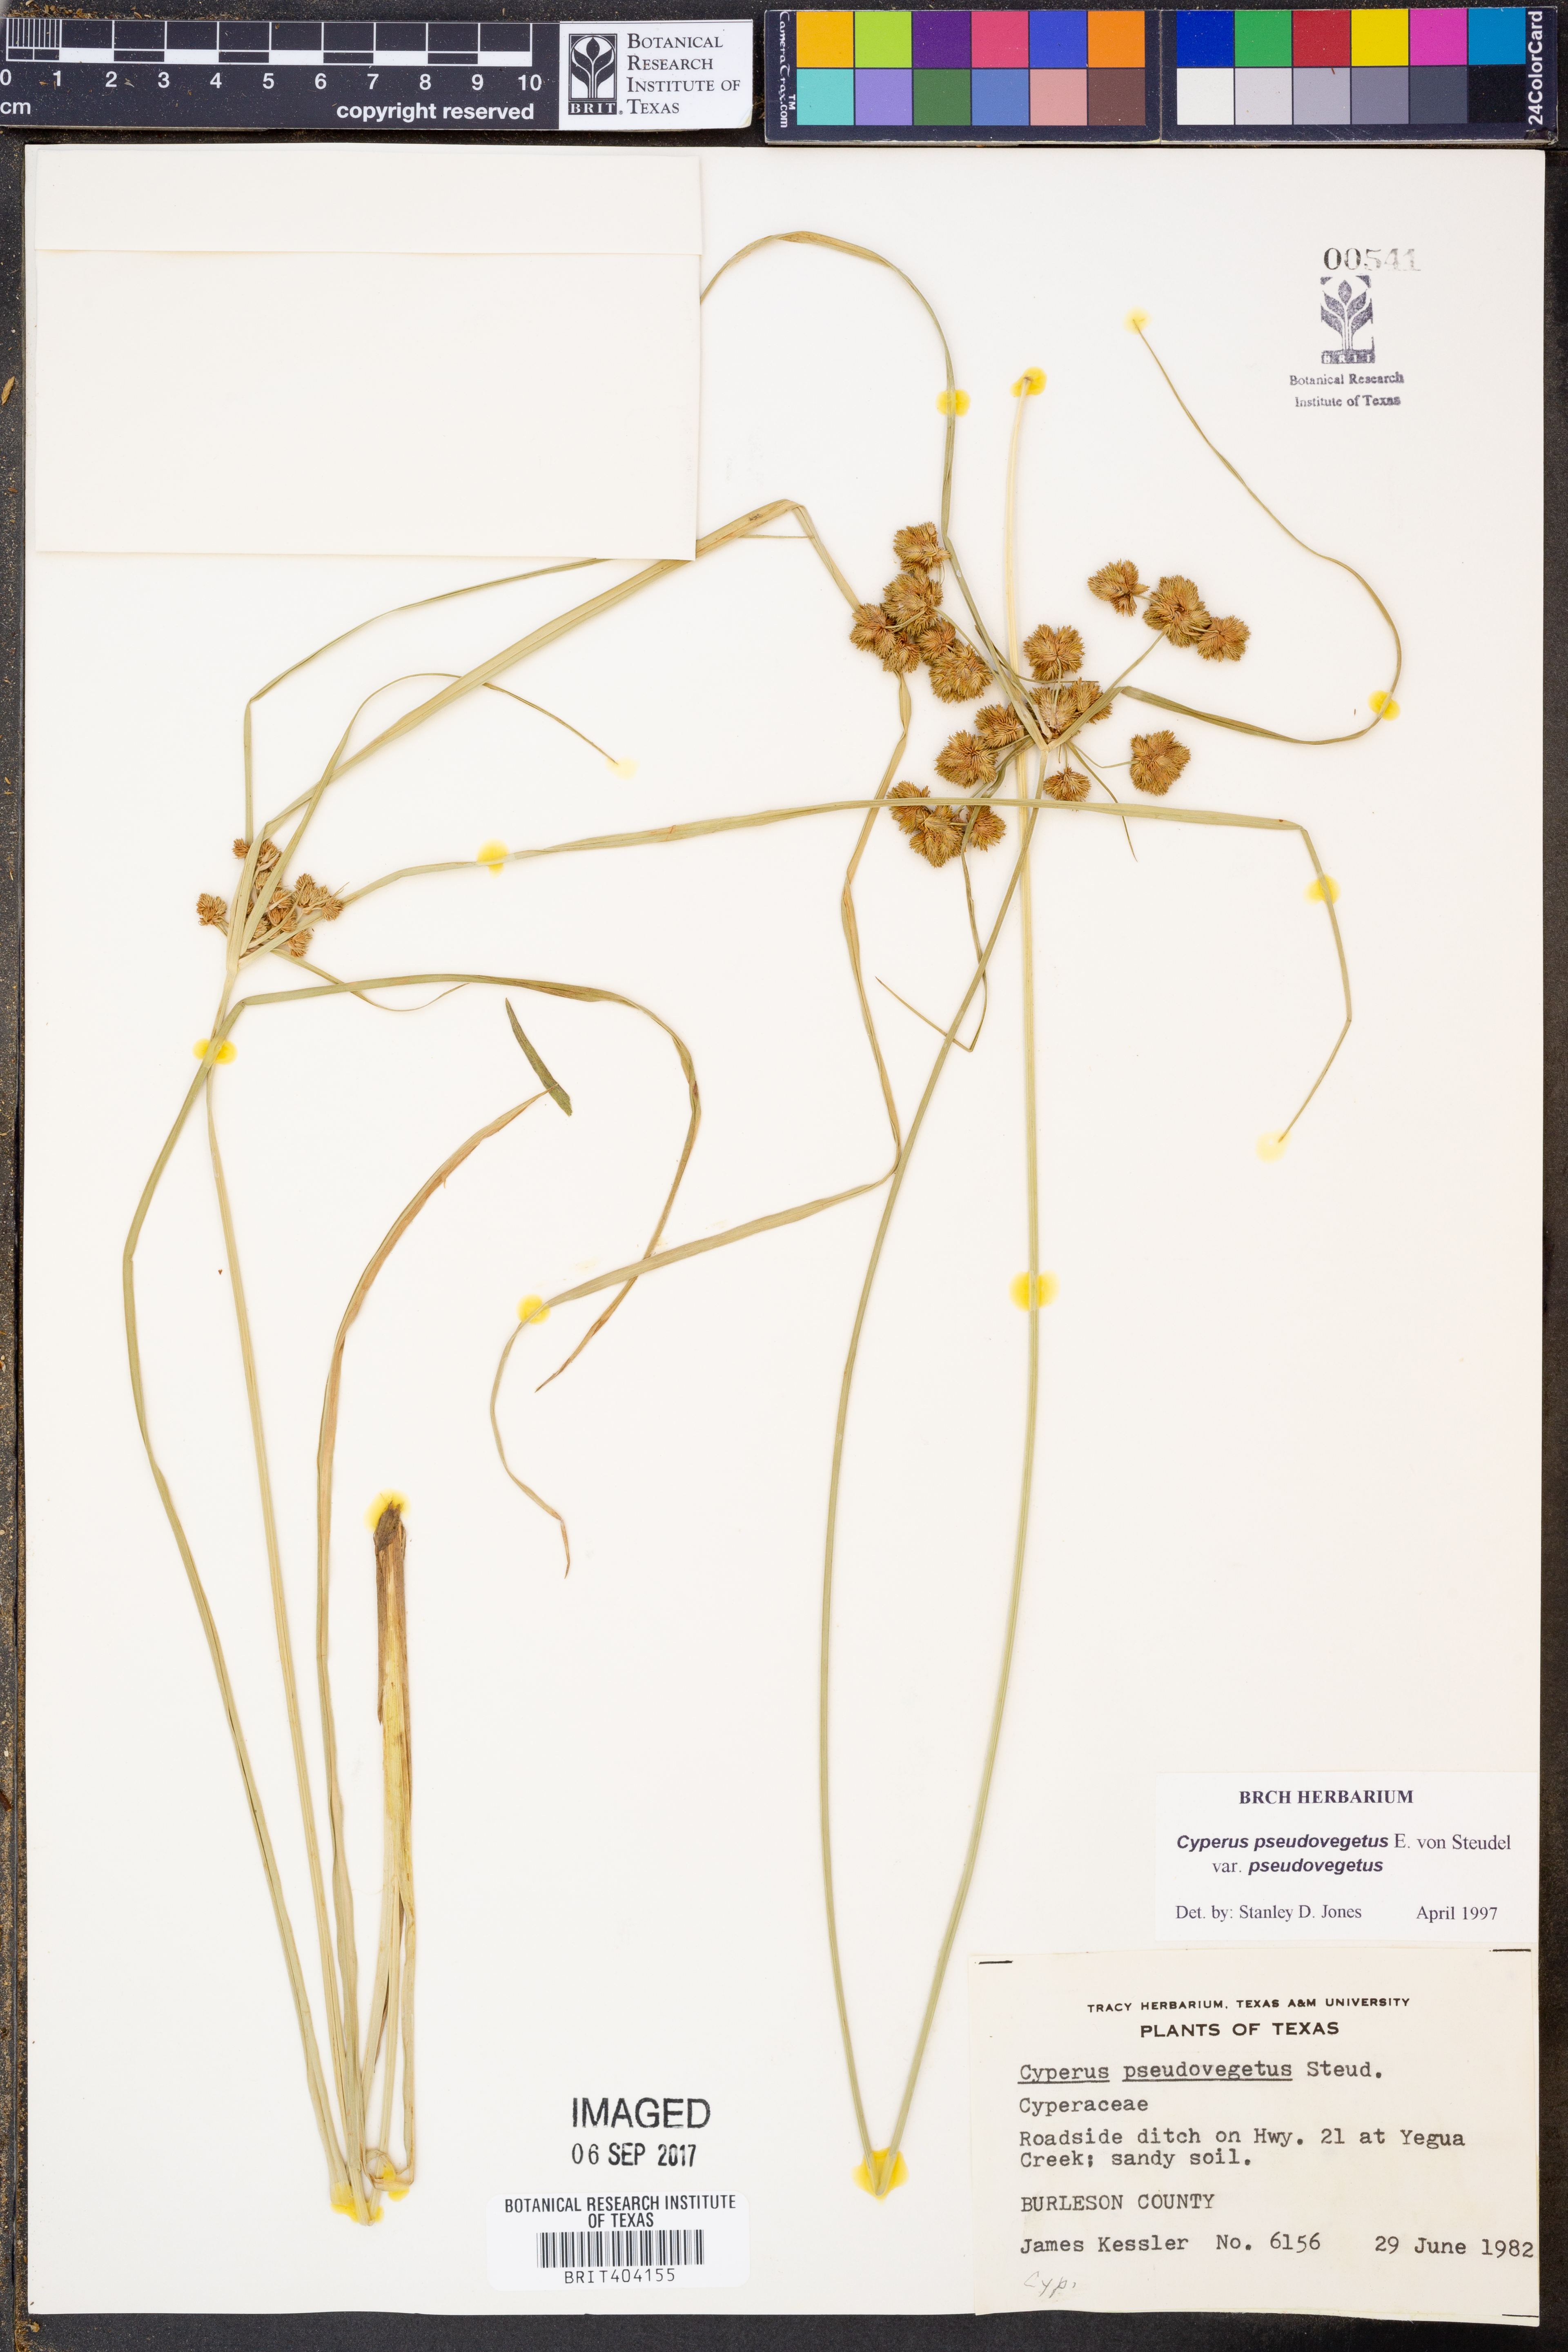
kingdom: Plantae
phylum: Tracheophyta
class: Liliopsida
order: Poales
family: Cyperaceae
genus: Cyperus
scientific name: Cyperus pseudovegetus
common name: Marsh flat sedge
